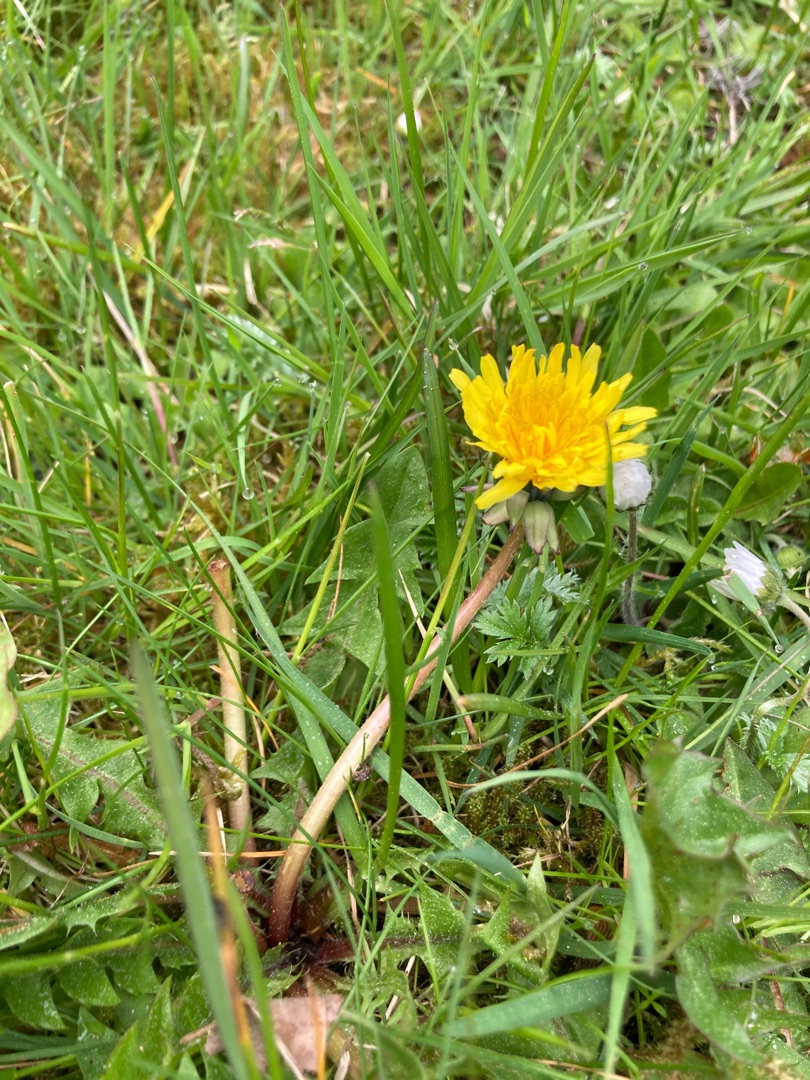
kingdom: Plantae
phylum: Tracheophyta
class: Magnoliopsida
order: Asterales
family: Asteraceae
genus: Taraxacum
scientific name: Taraxacum
